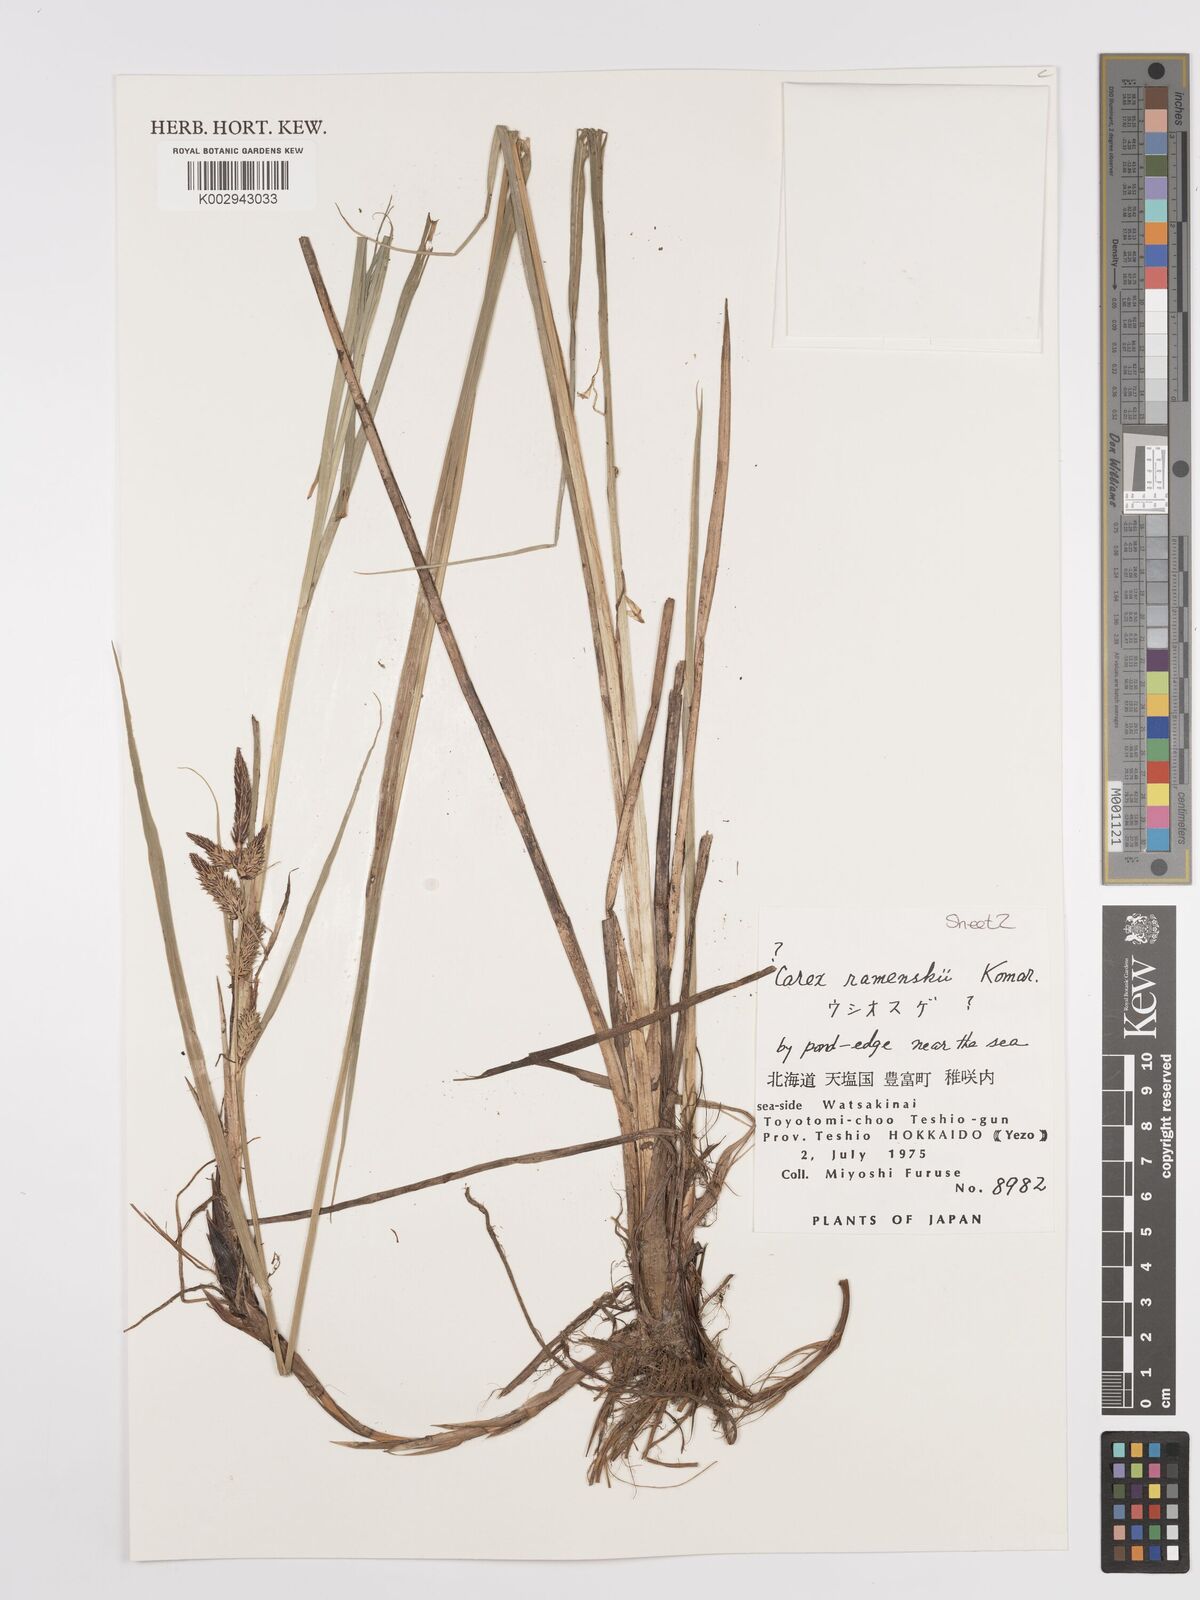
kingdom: Plantae
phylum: Tracheophyta
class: Liliopsida
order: Poales
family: Cyperaceae
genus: Carex
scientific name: Carex ramenskii
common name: Ramensk's sedge
